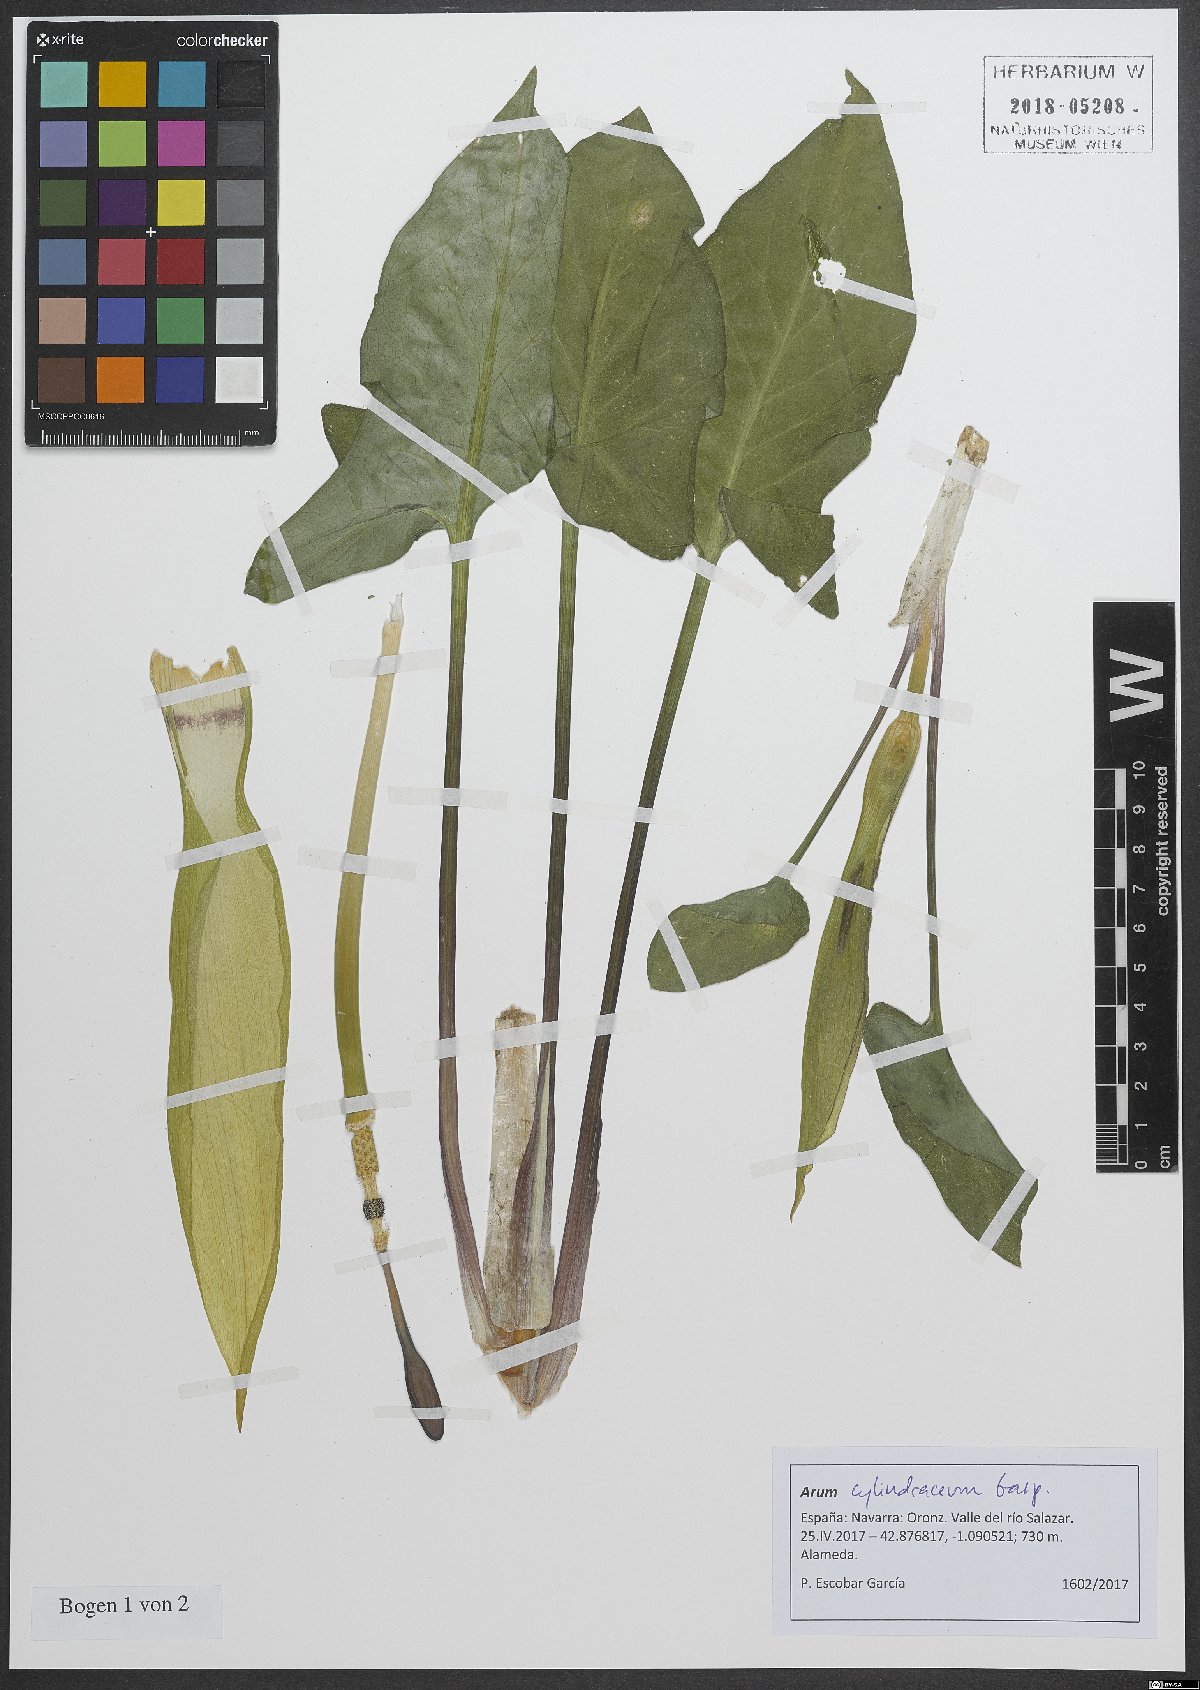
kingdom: Plantae
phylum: Tracheophyta
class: Liliopsida
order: Alismatales
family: Araceae
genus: Arum
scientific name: Arum cylindraceum
